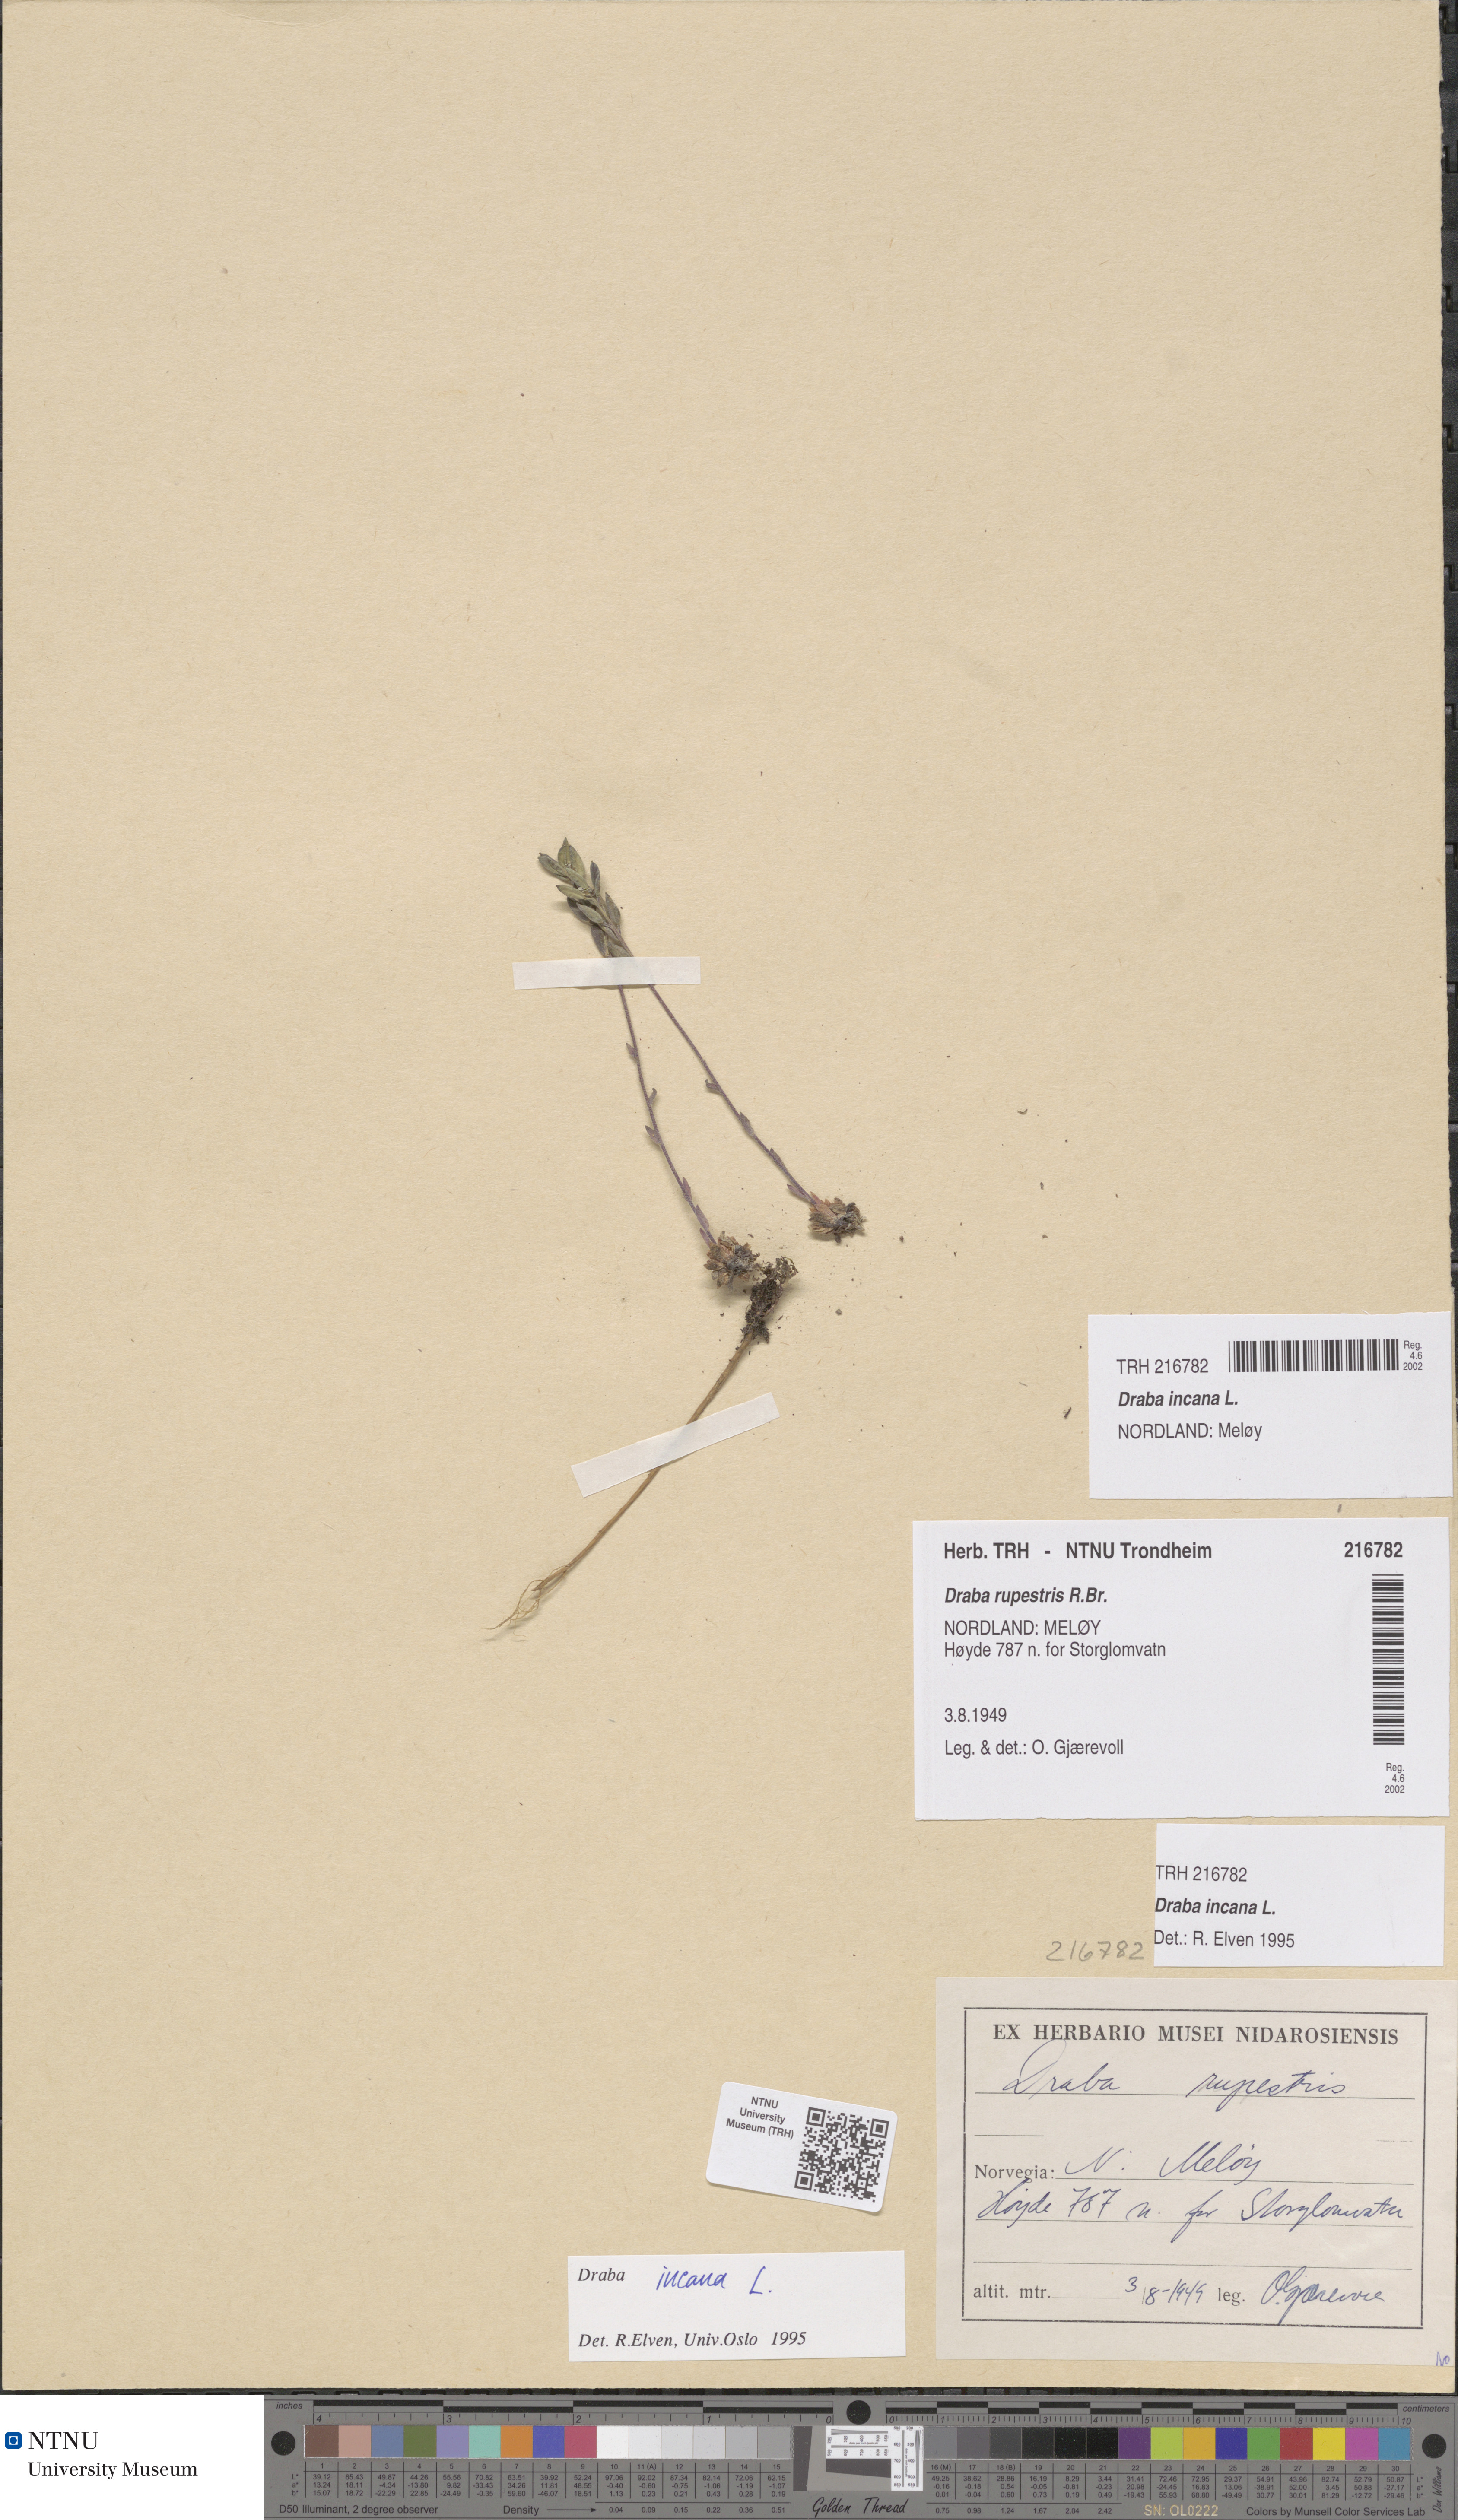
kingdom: Plantae
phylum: Tracheophyta
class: Magnoliopsida
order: Brassicales
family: Brassicaceae
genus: Draba
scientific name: Draba incana
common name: Hoary whitlow-grass
